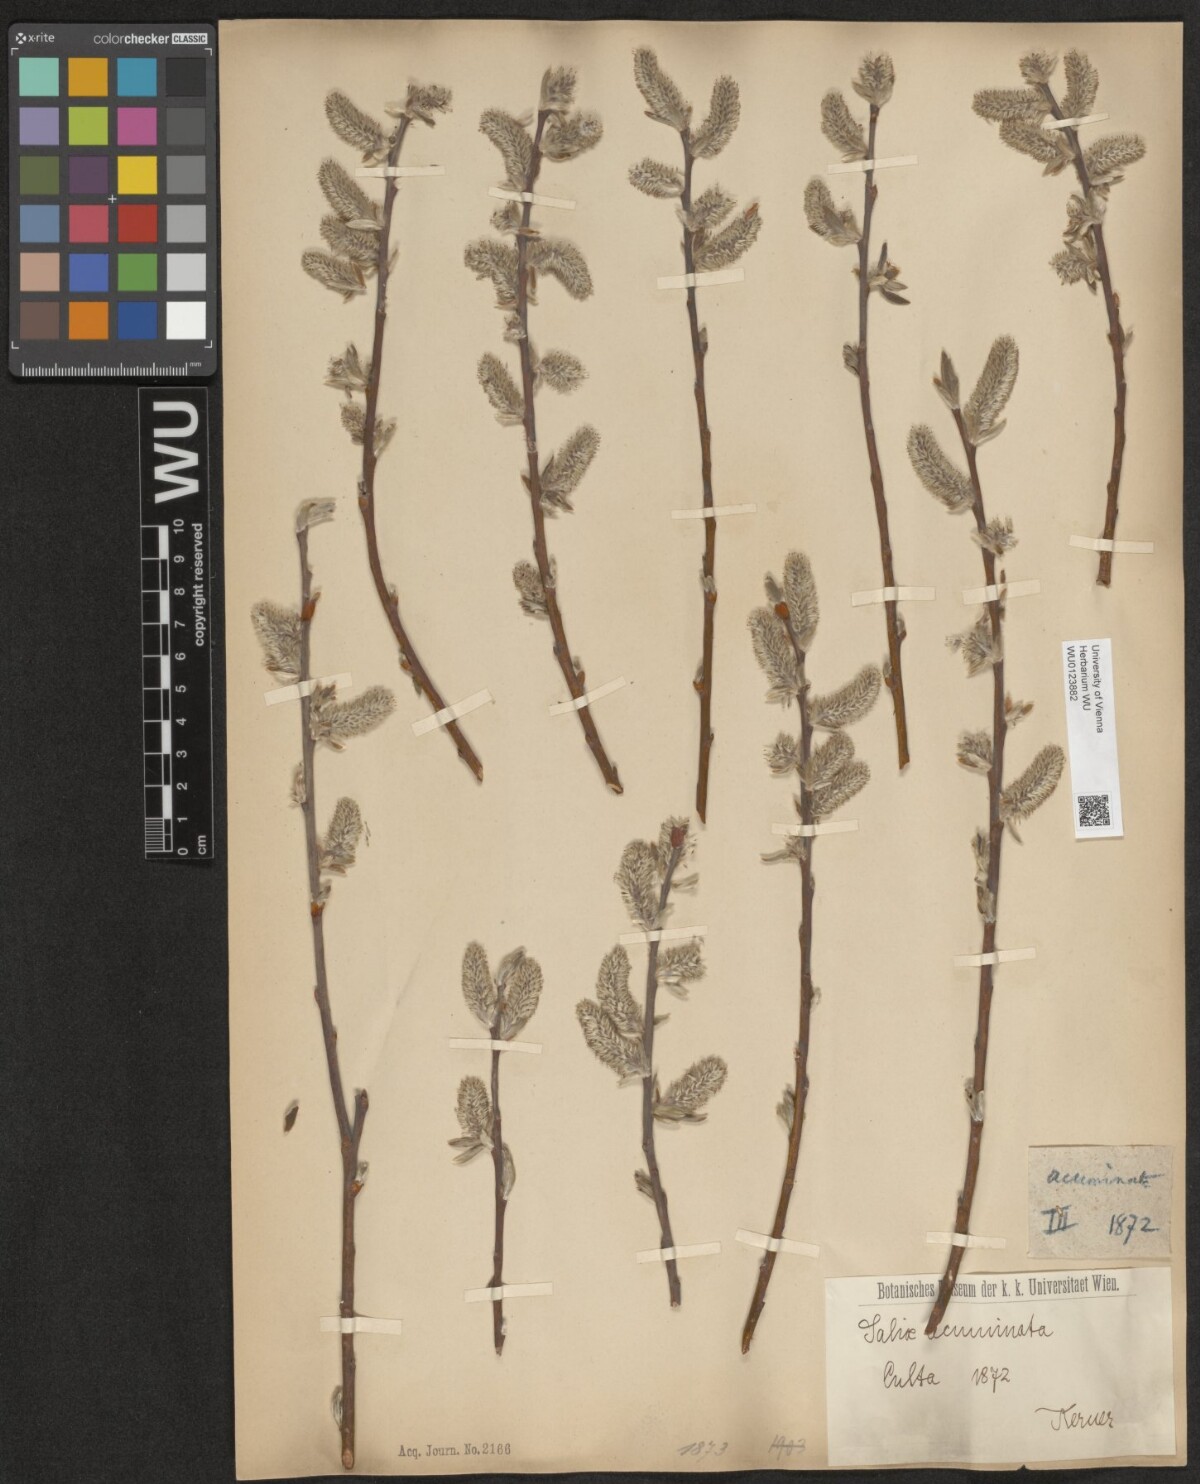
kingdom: Plantae
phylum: Tracheophyta
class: Magnoliopsida
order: Malpighiales
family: Salicaceae
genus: Salix
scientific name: Salix cinerea
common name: Common sallow
